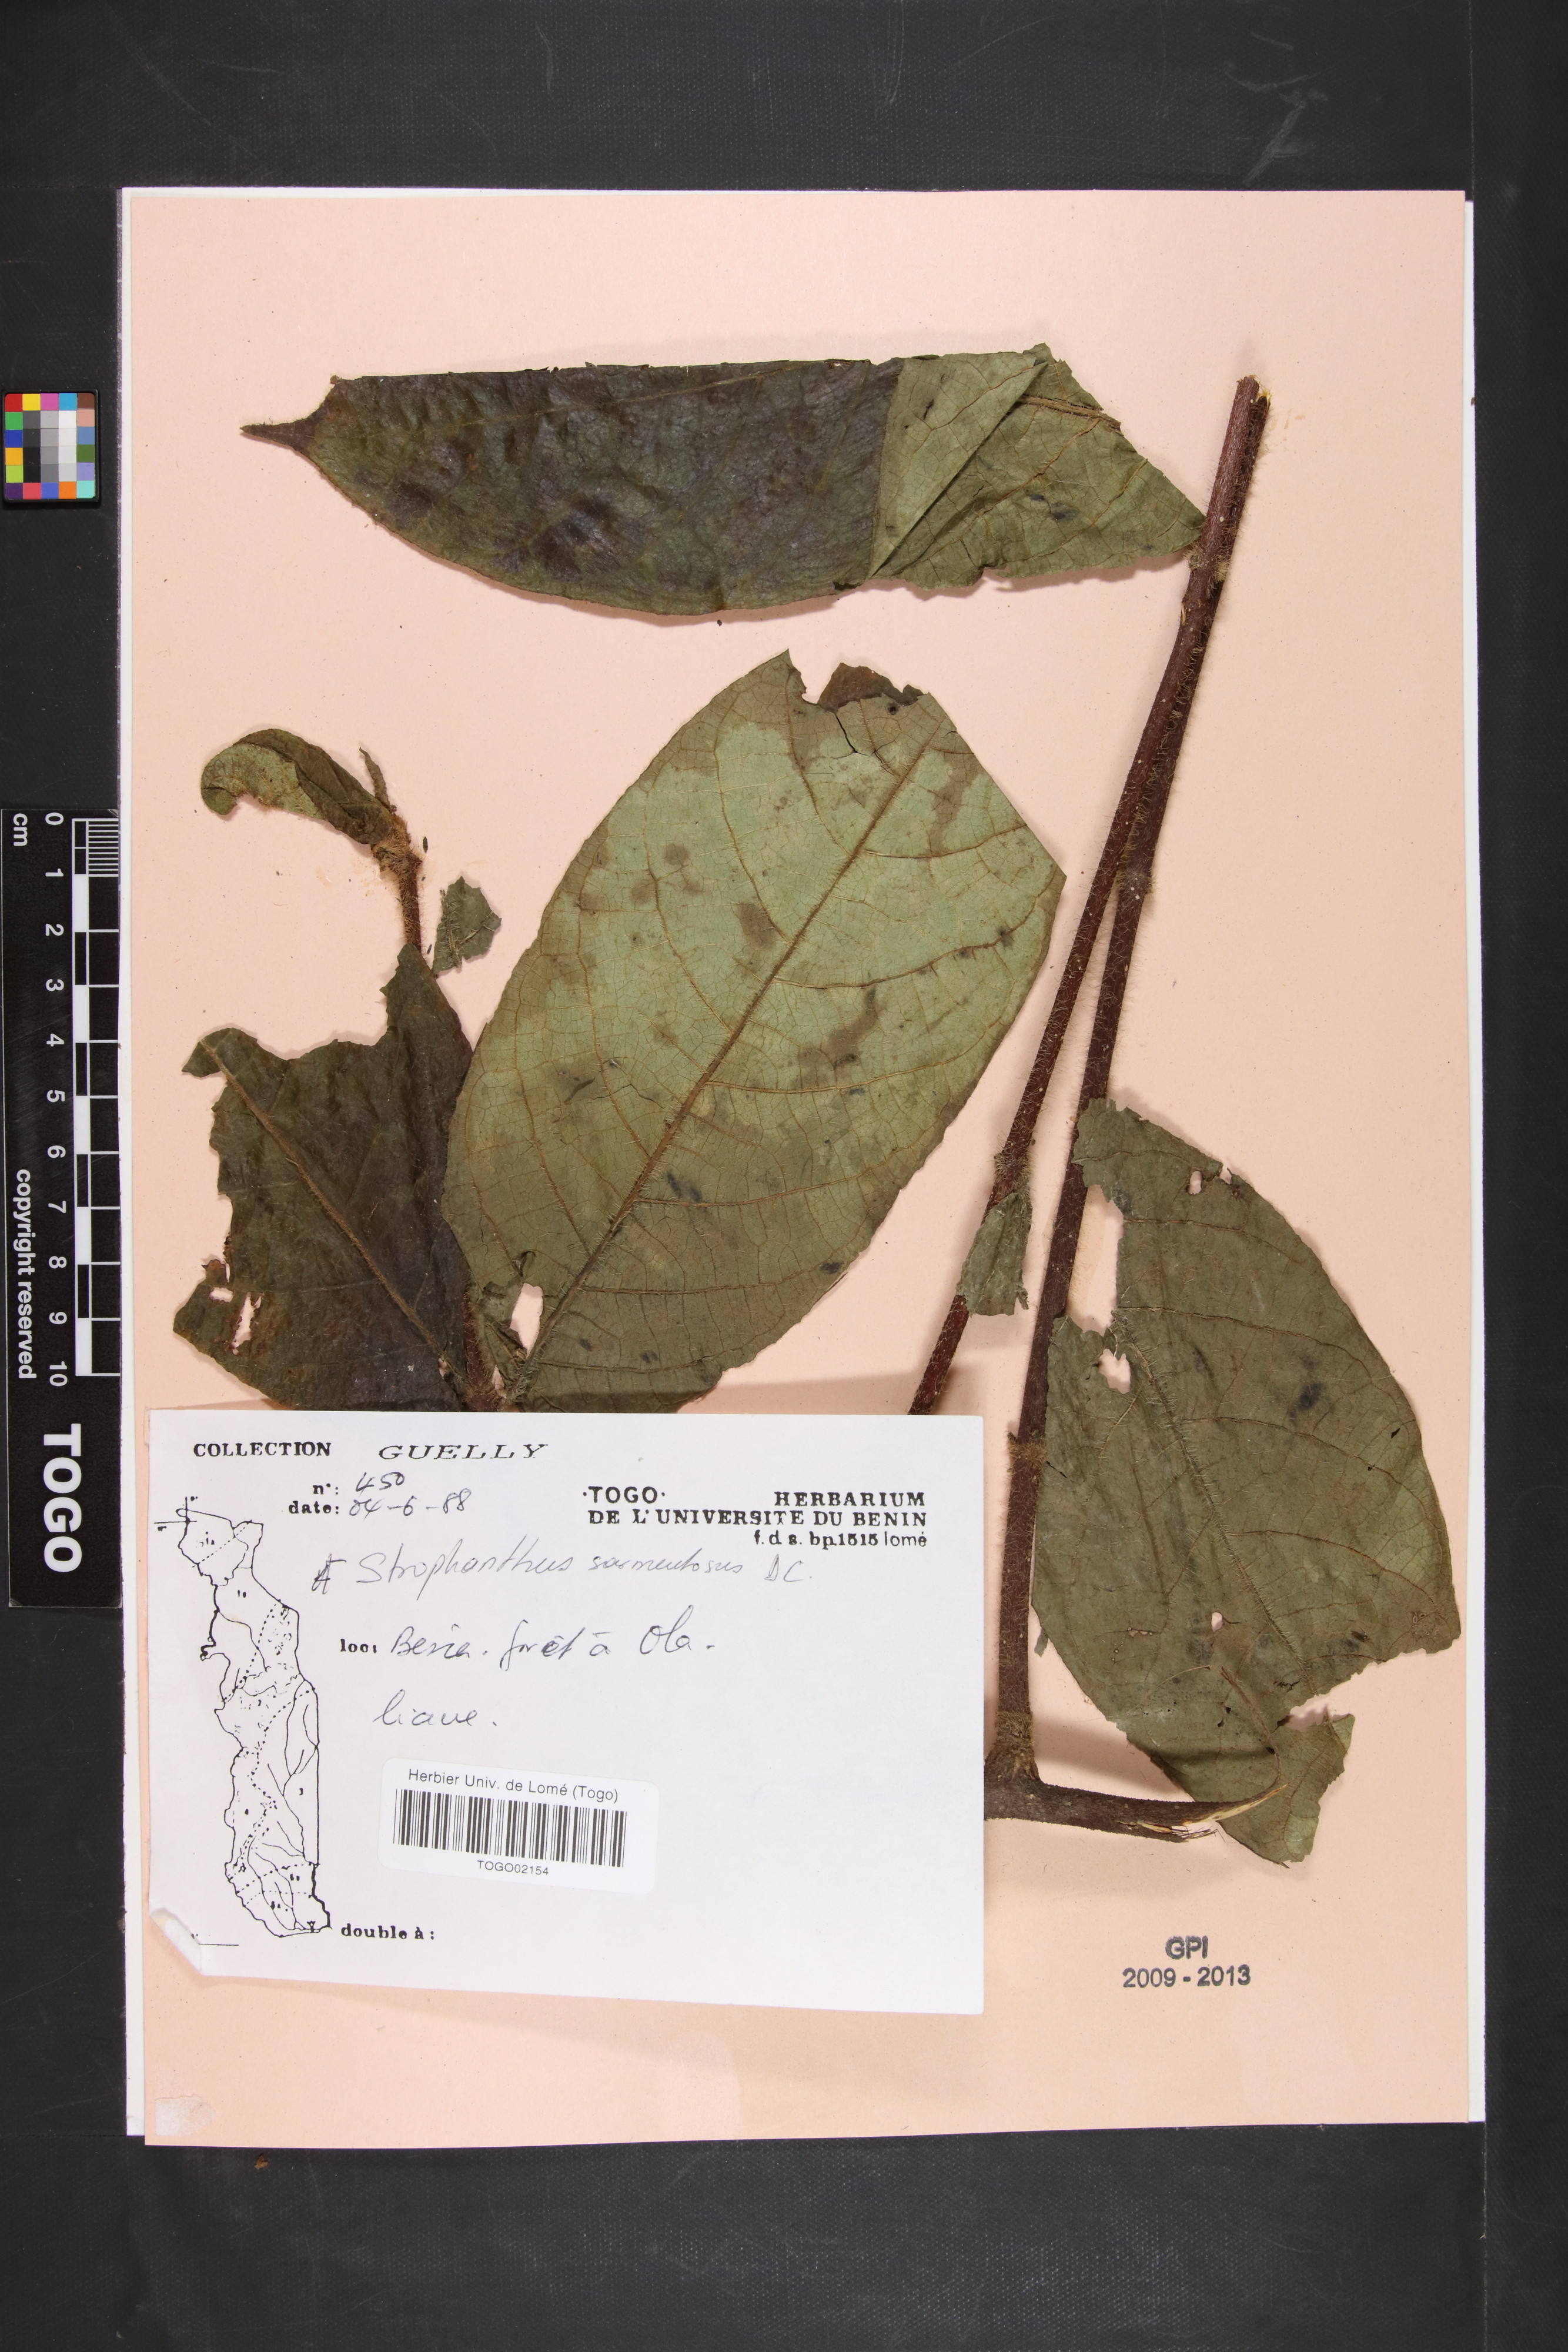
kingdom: Plantae
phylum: Tracheophyta
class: Magnoliopsida
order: Gentianales
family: Apocynaceae
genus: Strophanthus
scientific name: Strophanthus sarmentosus
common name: Poison arrowvine
